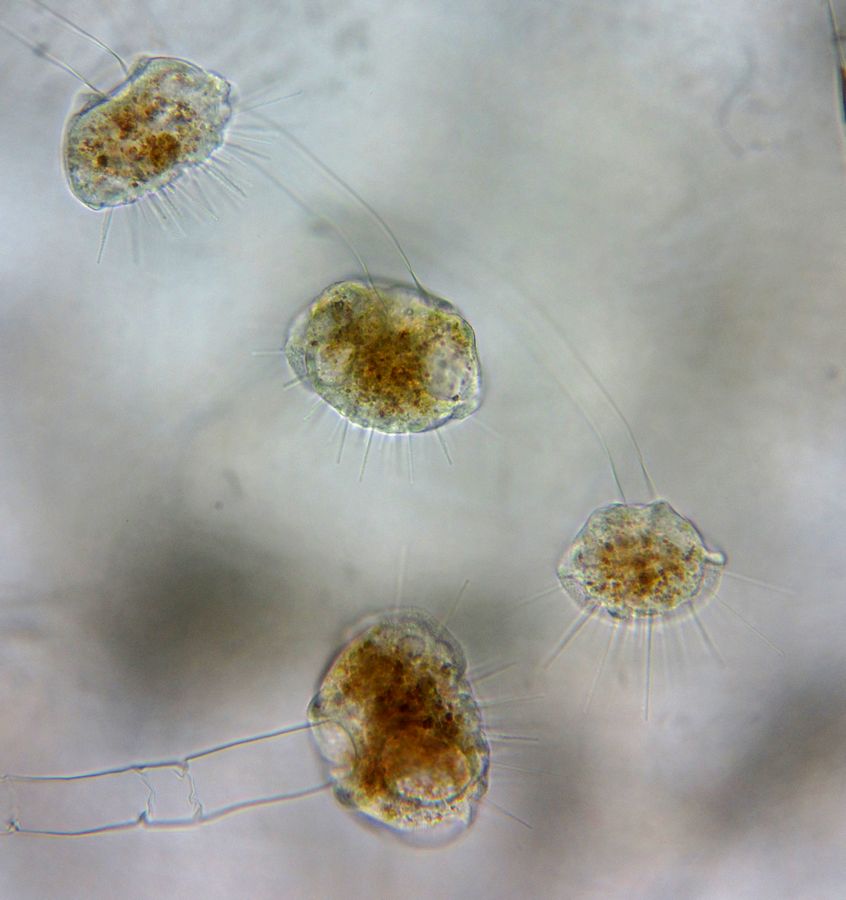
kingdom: Chromista
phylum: Ciliophora
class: Phyllopharyngea
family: Ephelotidae
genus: Ephelota
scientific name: Ephelota gemmipara
